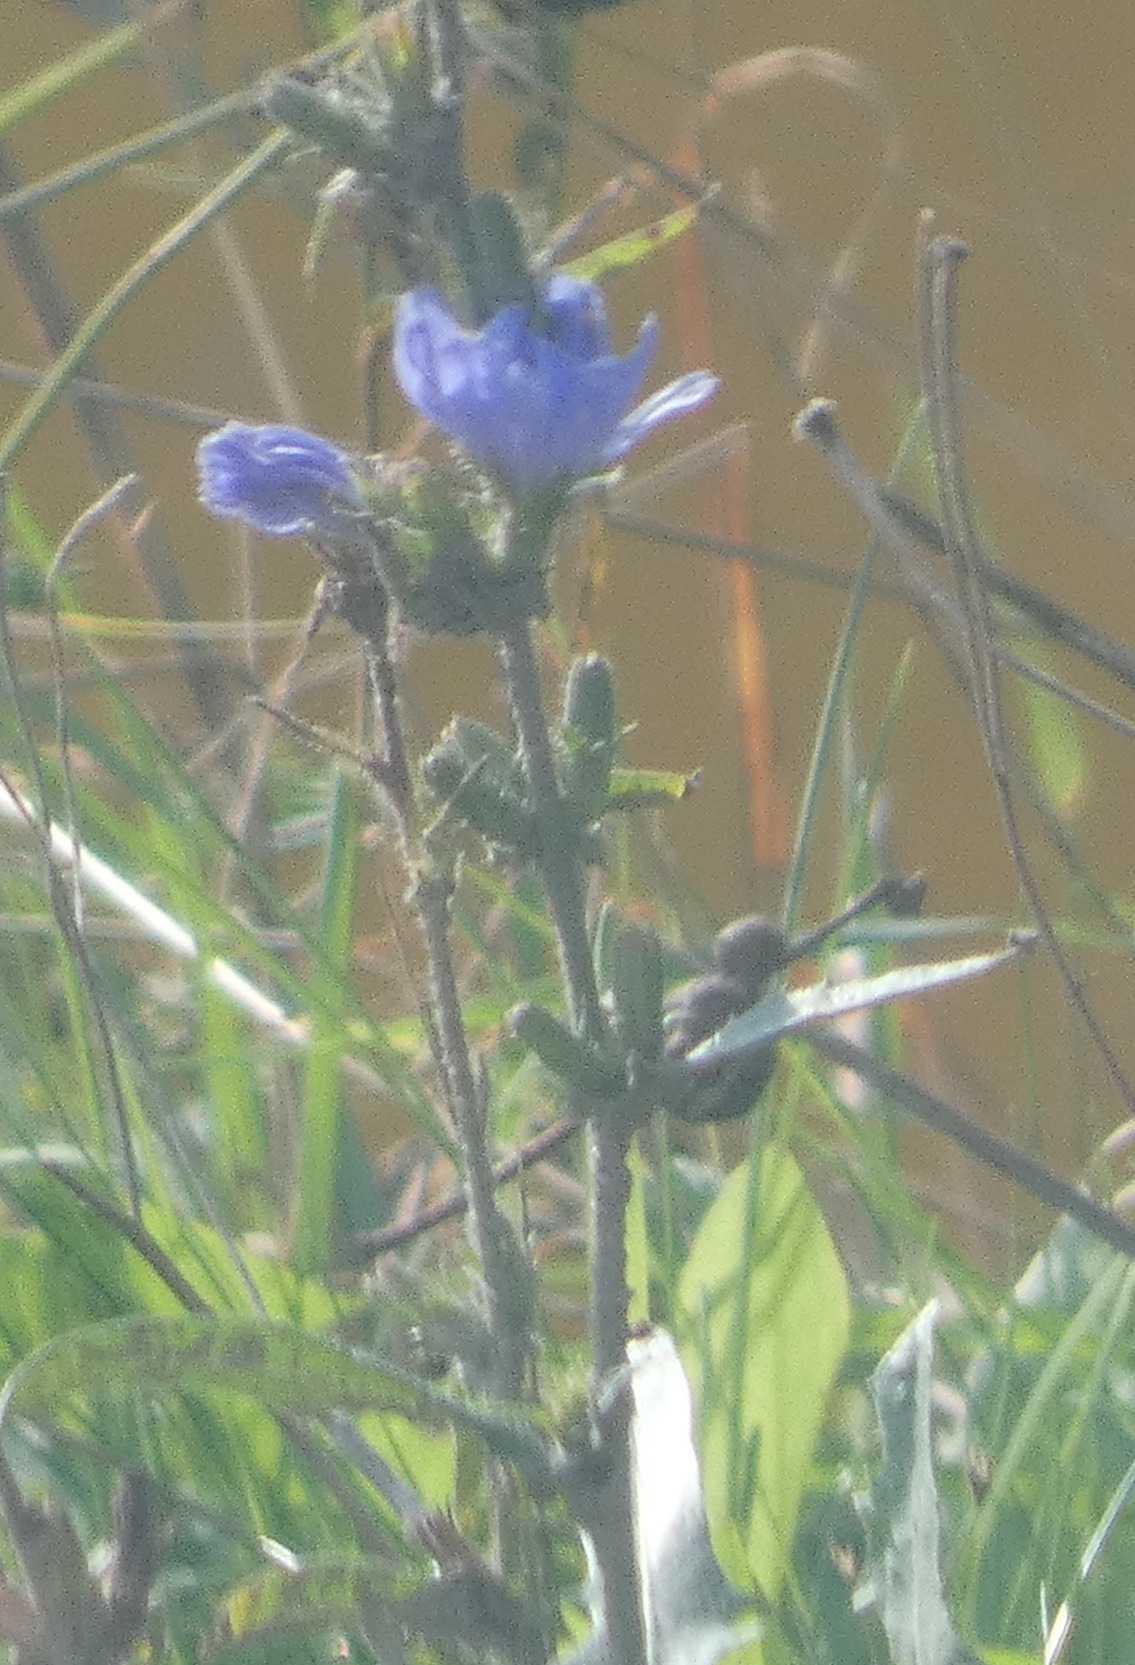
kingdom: Plantae
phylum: Tracheophyta
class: Magnoliopsida
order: Asterales
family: Asteraceae
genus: Cichorium
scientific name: Cichorium intybus
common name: Cikorie
